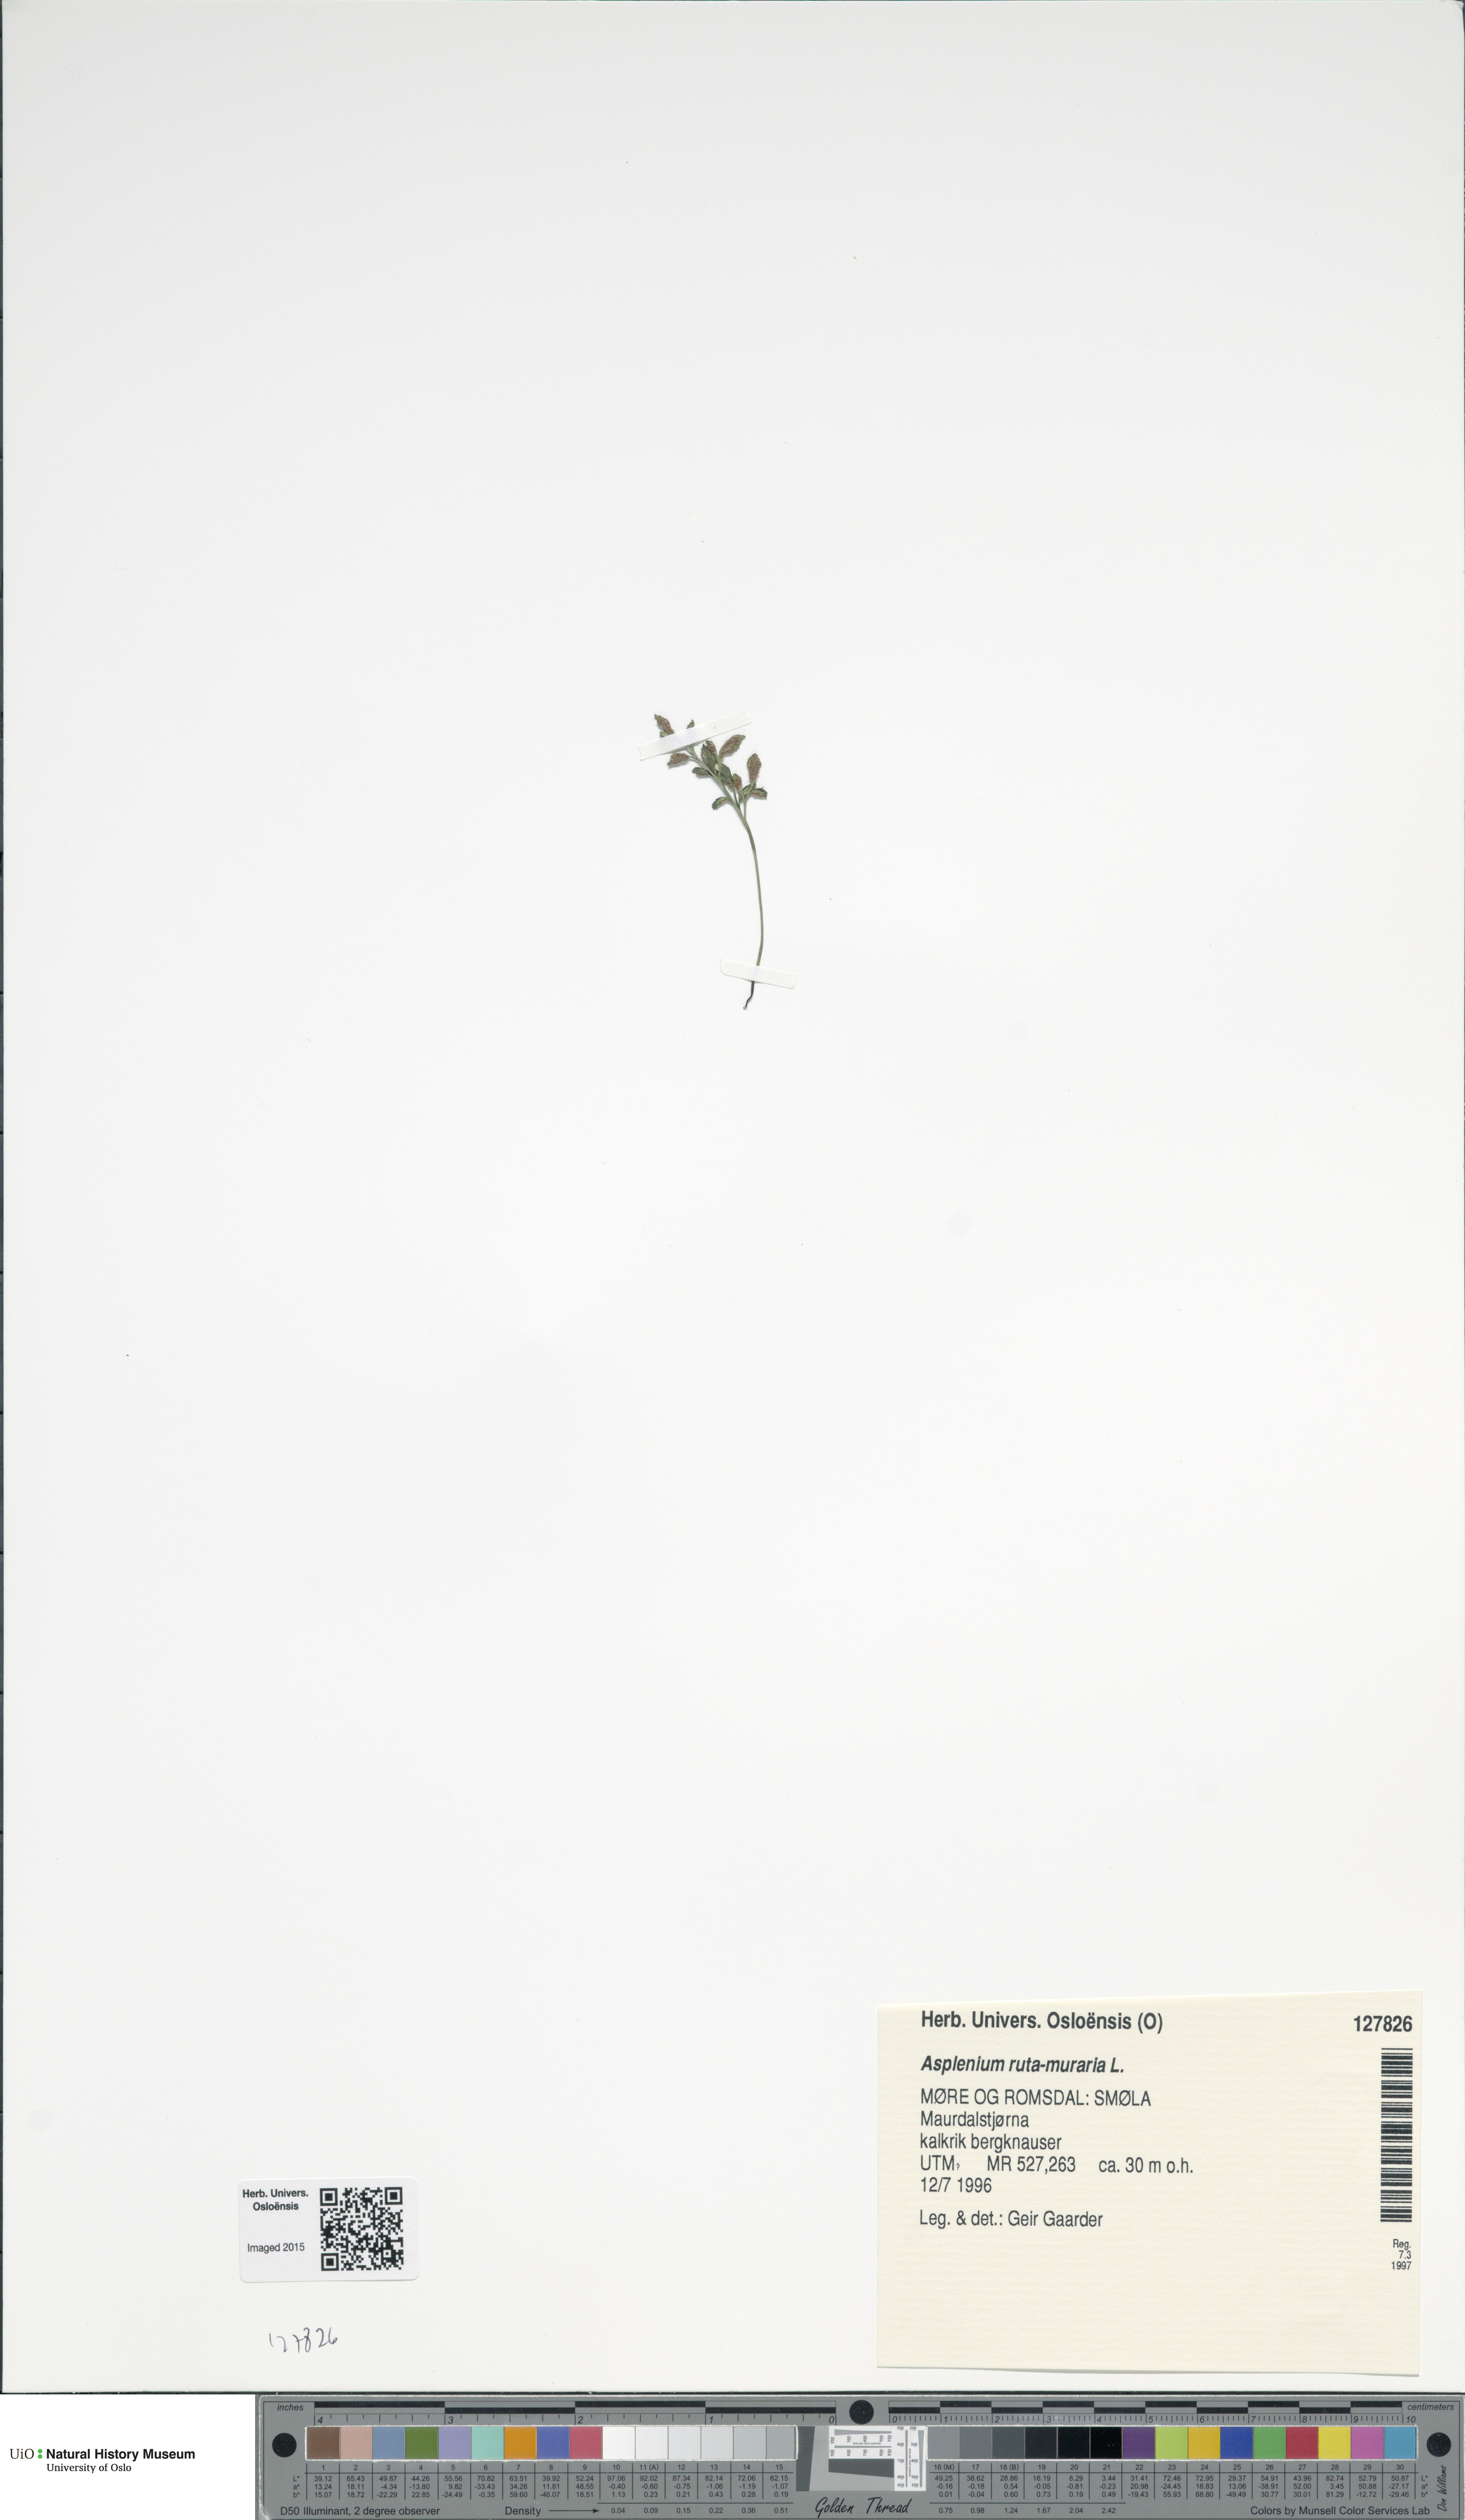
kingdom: Plantae
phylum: Tracheophyta
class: Polypodiopsida
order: Polypodiales
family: Aspleniaceae
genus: Asplenium
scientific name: Asplenium ruta-muraria
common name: Wall-rue
